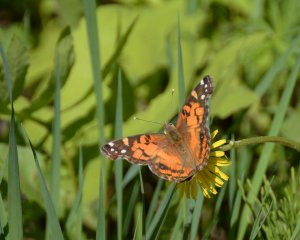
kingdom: Animalia
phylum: Arthropoda
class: Insecta
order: Lepidoptera
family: Nymphalidae
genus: Vanessa
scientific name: Vanessa virginiensis
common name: American Lady
